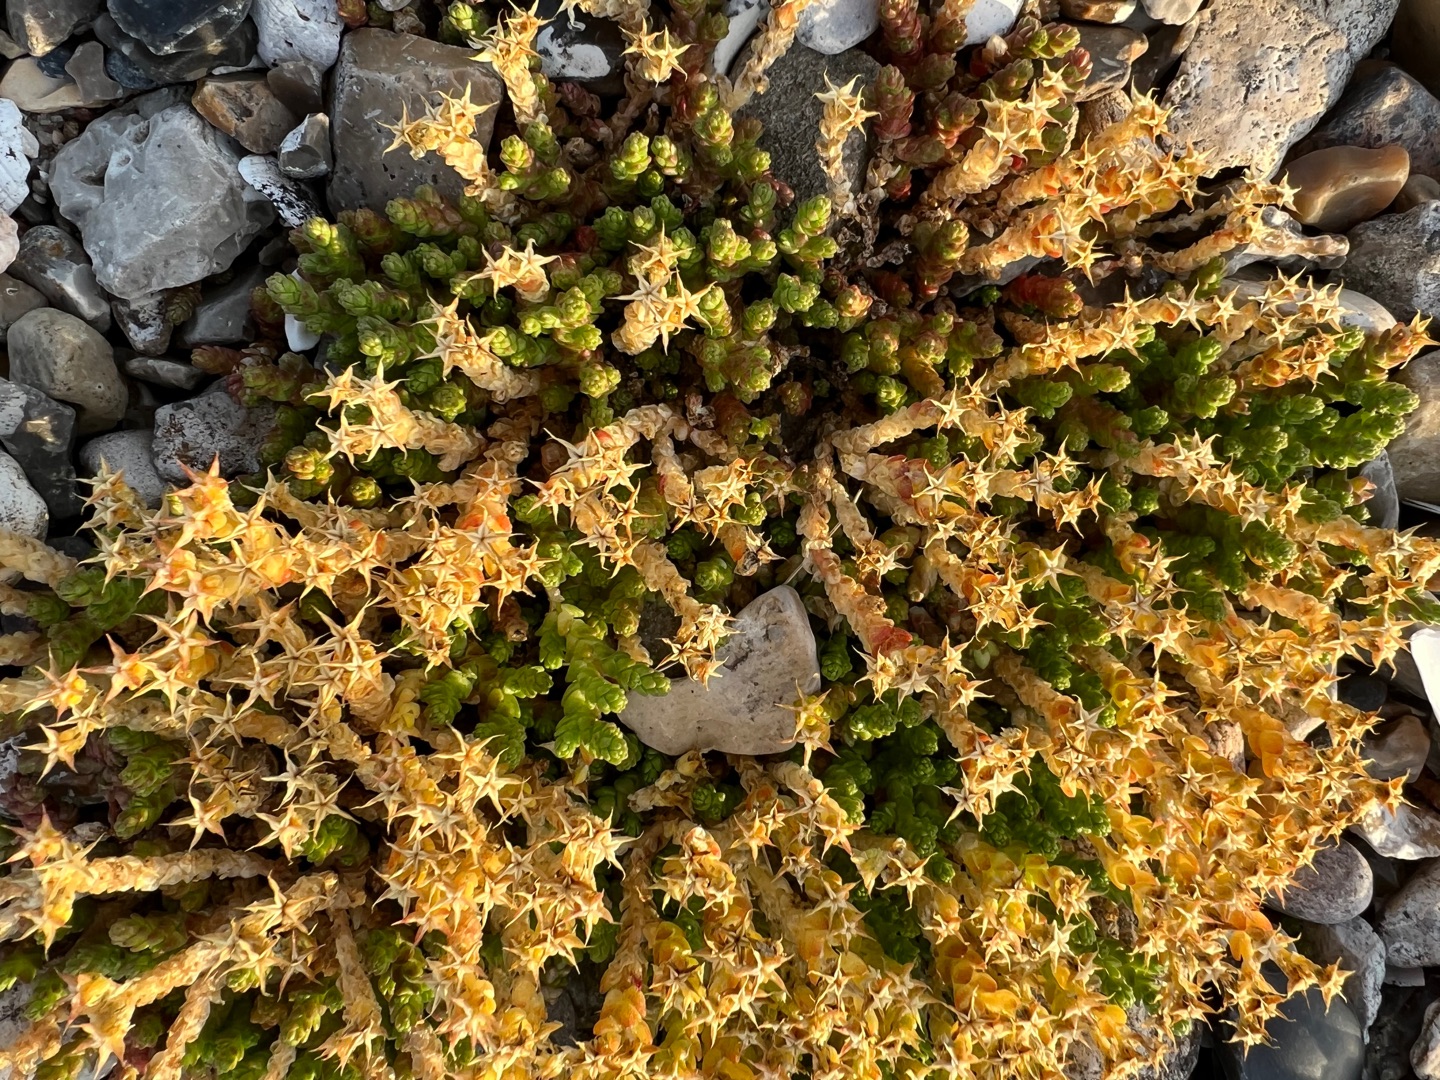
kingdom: Plantae
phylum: Tracheophyta
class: Magnoliopsida
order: Saxifragales
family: Crassulaceae
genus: Sedum
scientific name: Sedum acre
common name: Bidende stenurt
